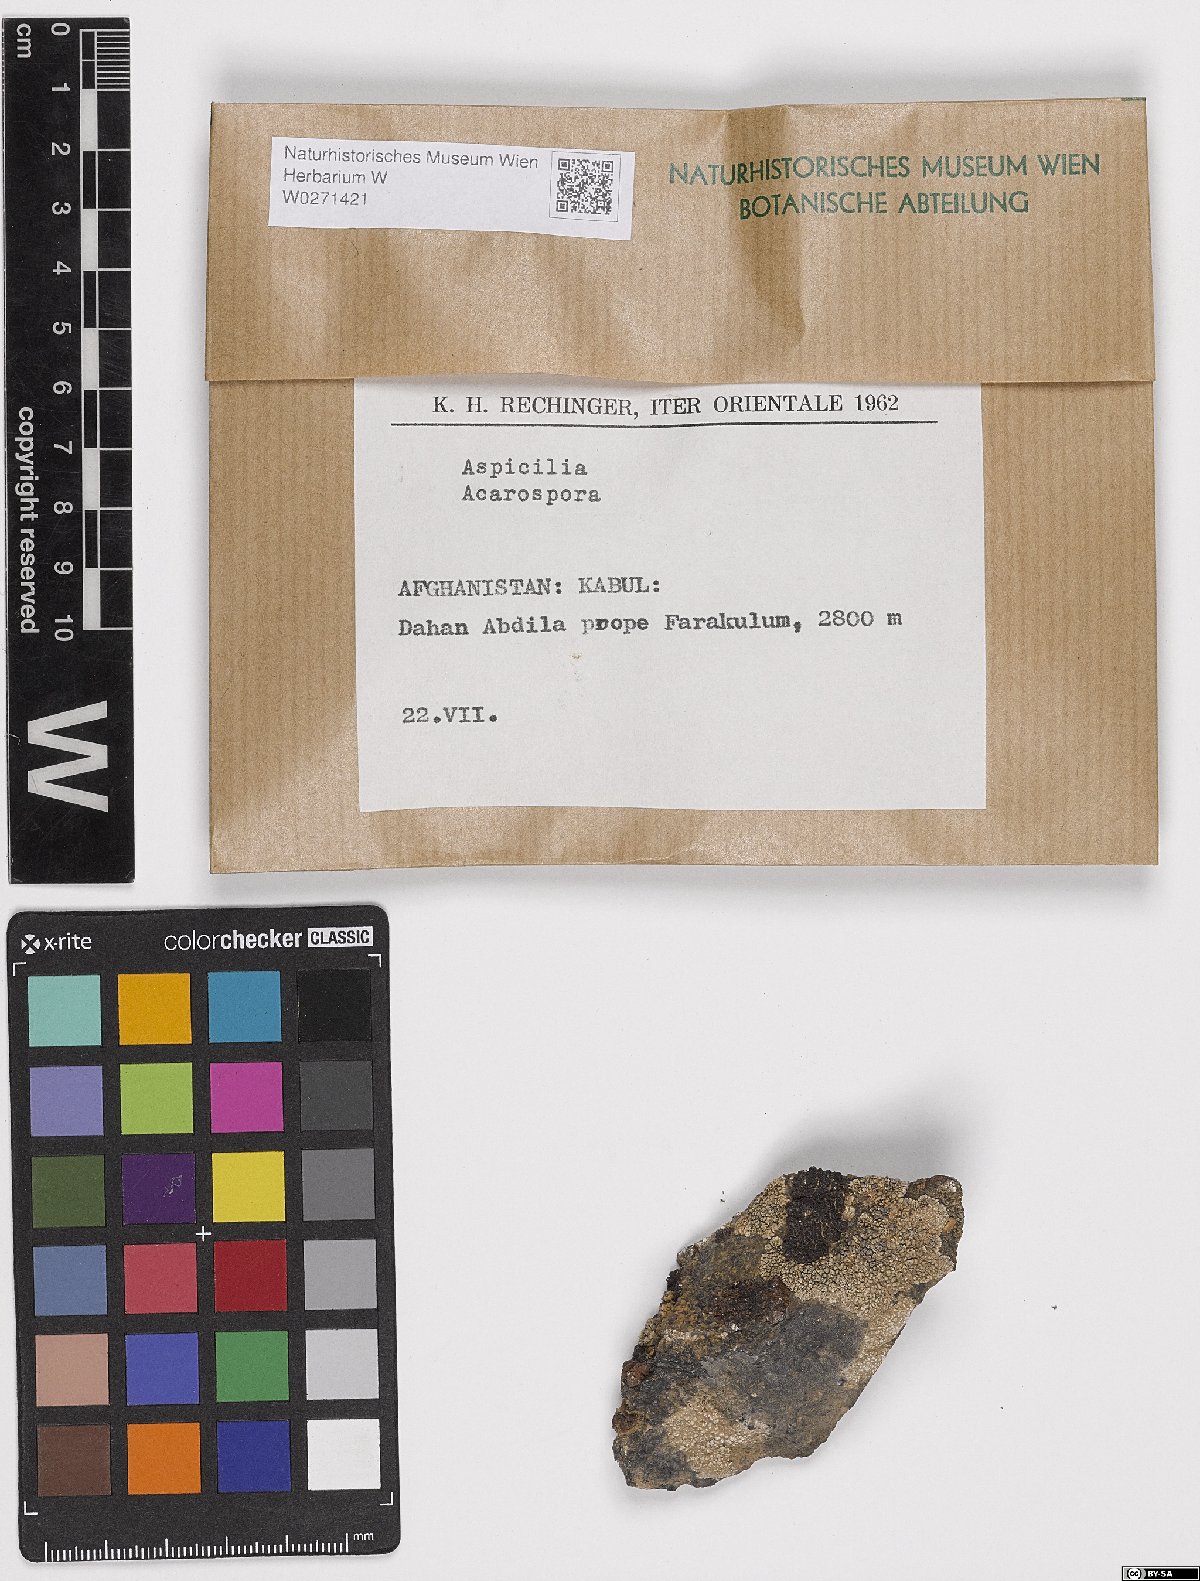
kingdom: Fungi
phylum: Ascomycota
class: Lecanoromycetes
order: Hymeneliales
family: Hymeneliaceae
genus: Aspicilia
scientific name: Aspicilia
